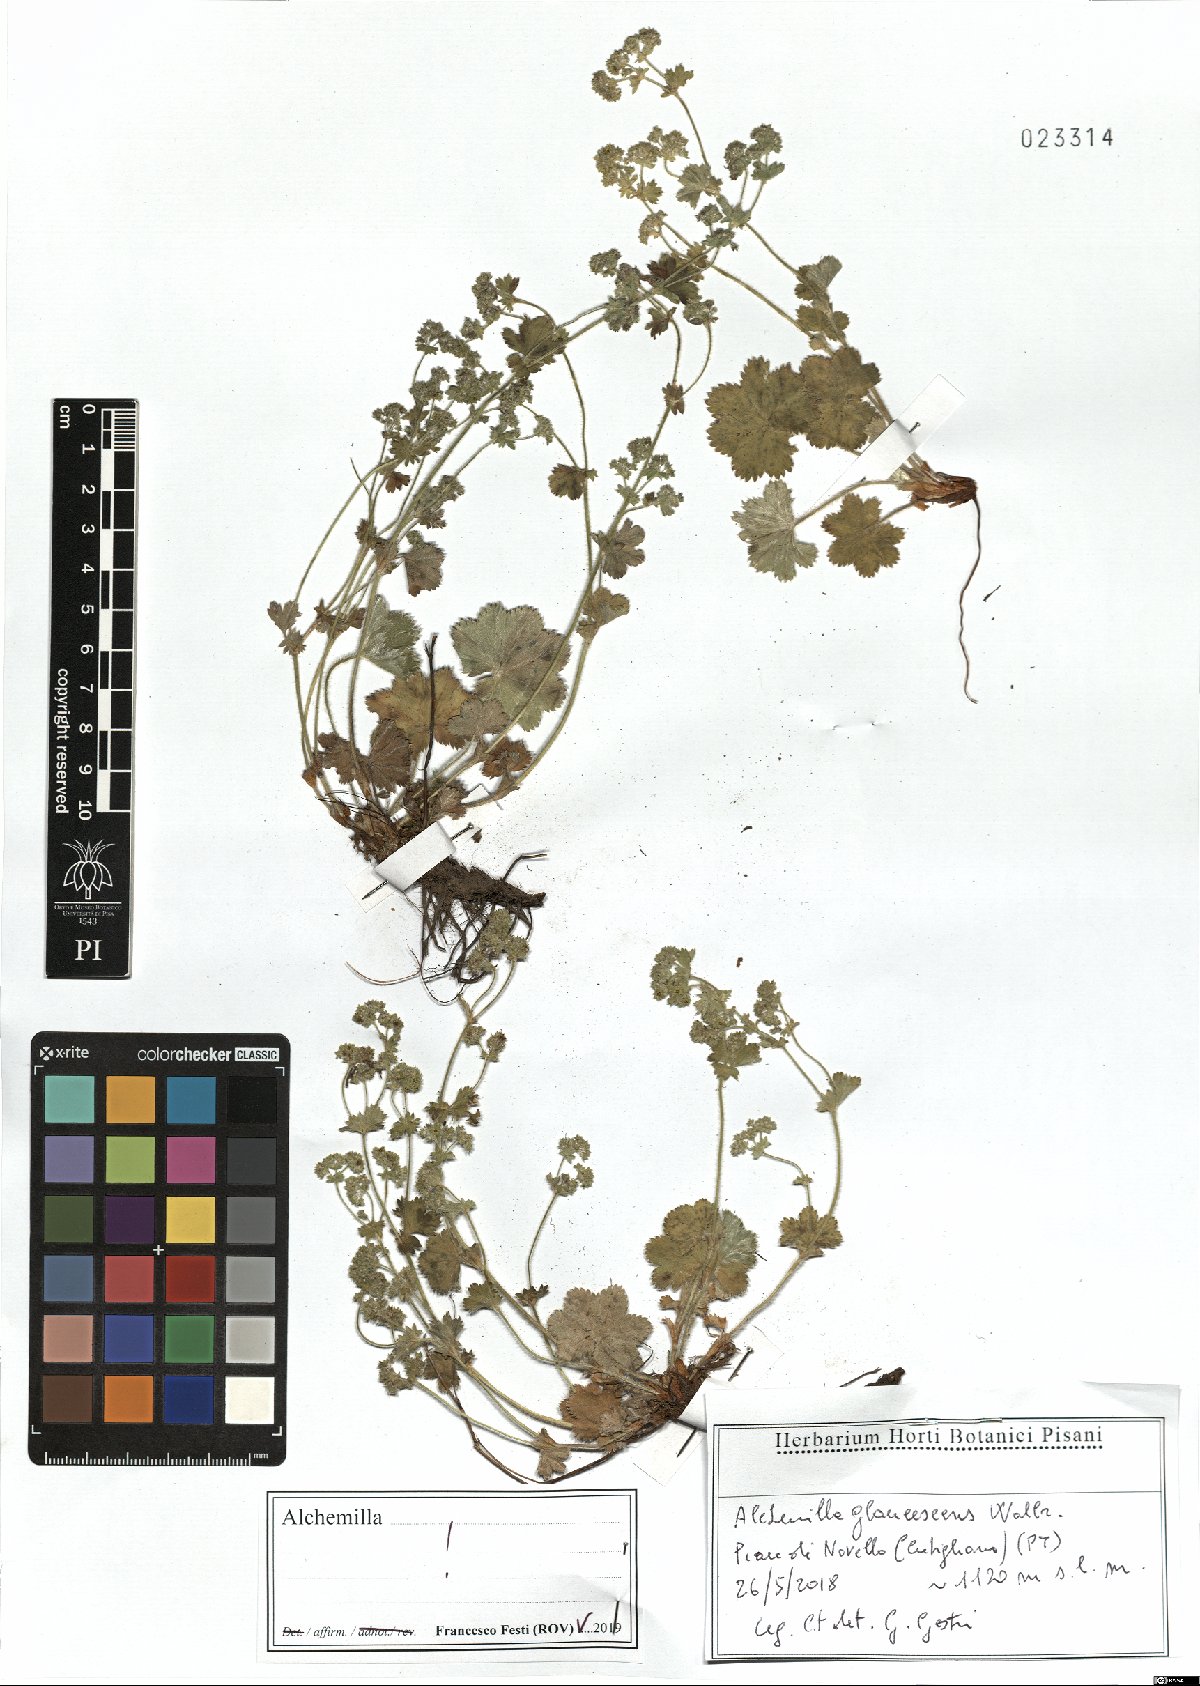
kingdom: Plantae
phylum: Tracheophyta
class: Magnoliopsida
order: Rosales
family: Rosaceae
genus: Alchemilla
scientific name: Alchemilla glaucescens
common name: Silky lady's mantle
